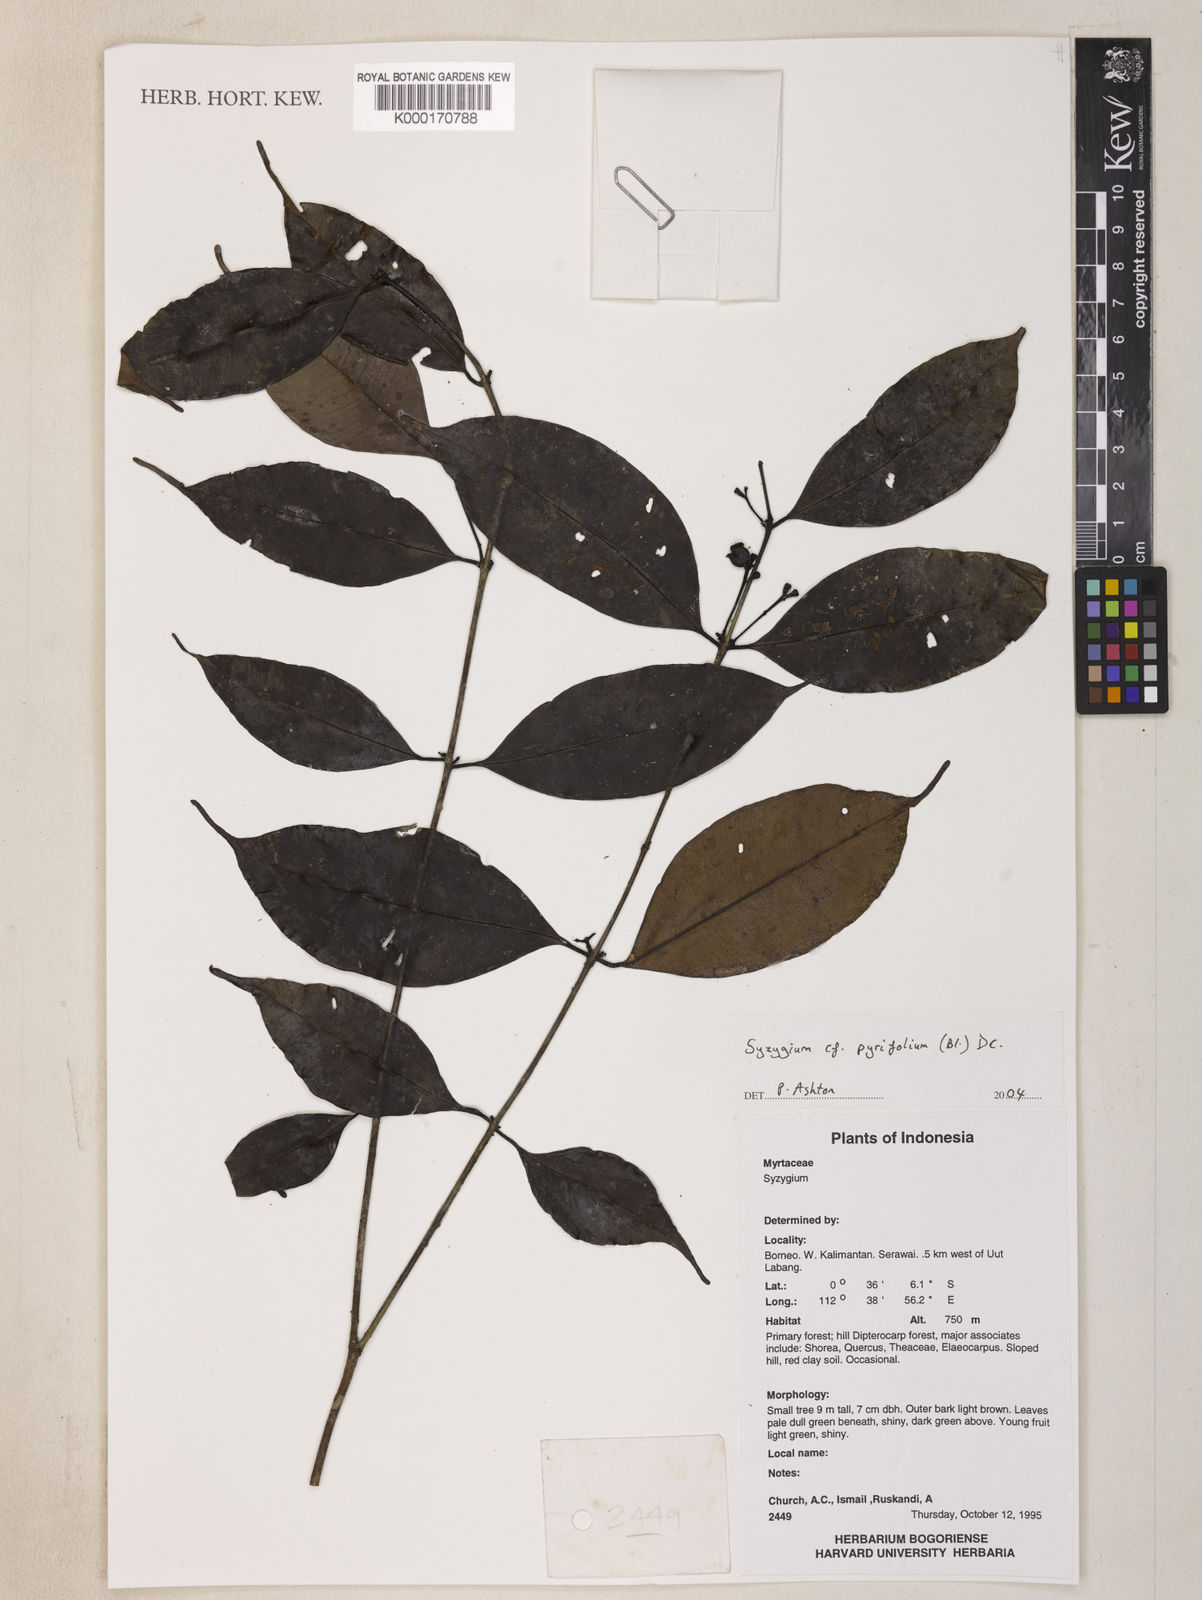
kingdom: Plantae
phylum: Tracheophyta
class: Magnoliopsida
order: Myrtales
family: Myrtaceae
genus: Syzygium
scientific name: Syzygium pyrifolium
